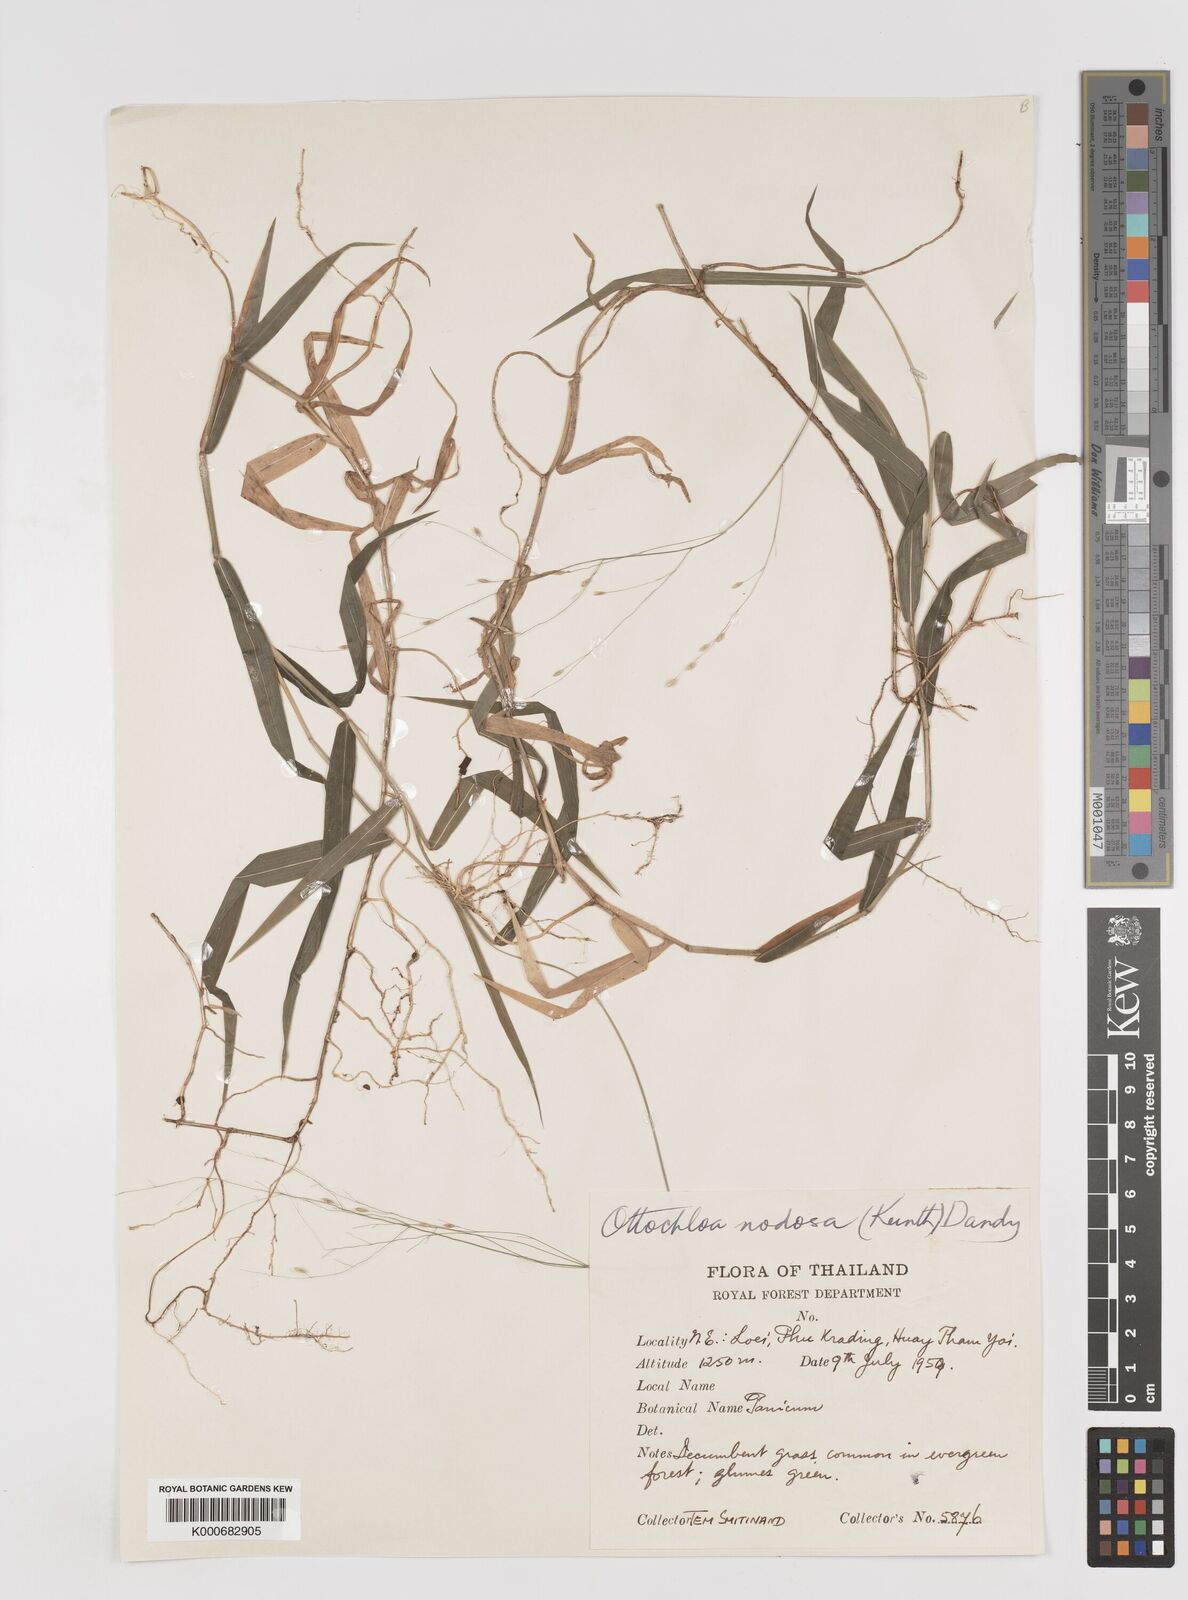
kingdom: Plantae
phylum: Tracheophyta
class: Liliopsida
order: Poales
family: Poaceae
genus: Ottochloa
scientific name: Ottochloa nodosa
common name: Slender-panic grass
